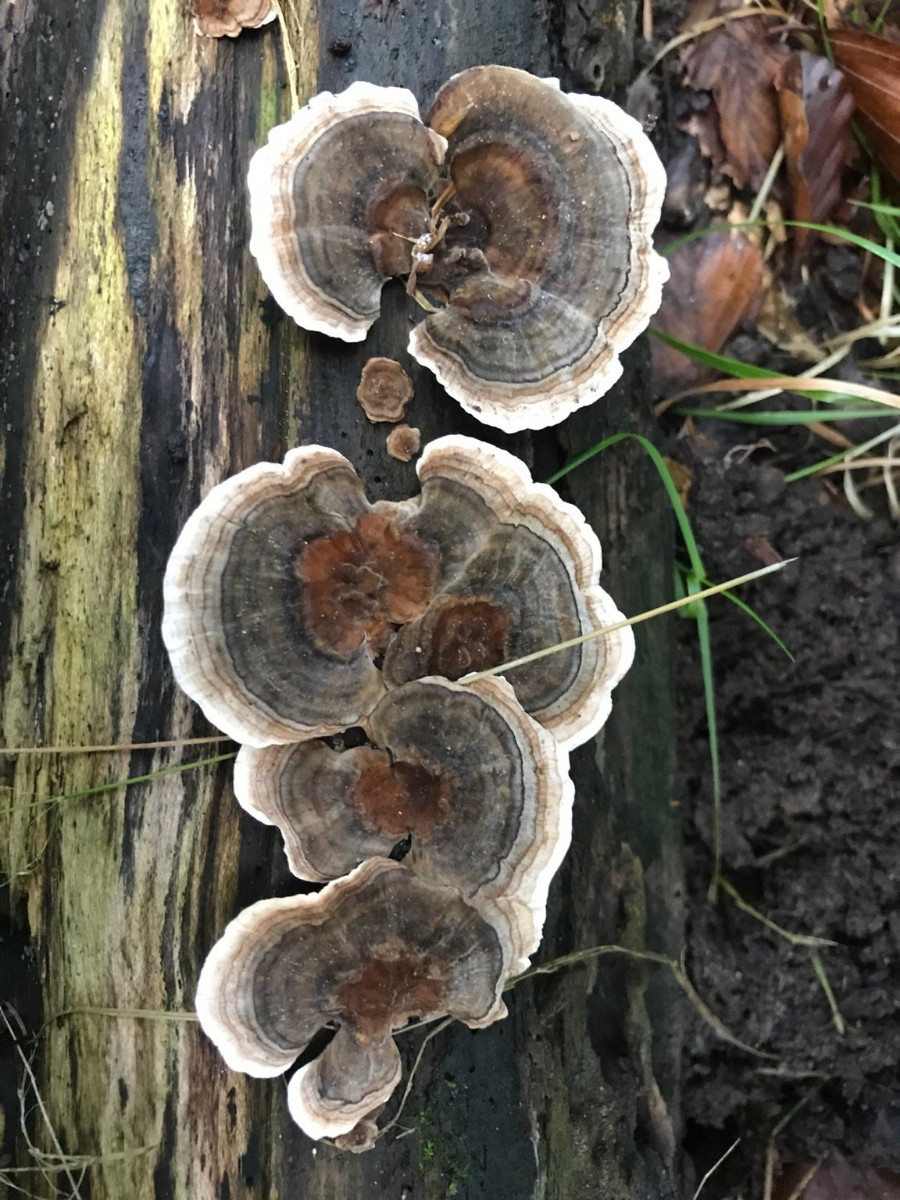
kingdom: Fungi
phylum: Basidiomycota
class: Agaricomycetes
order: Polyporales
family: Polyporaceae
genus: Trametes
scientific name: Trametes versicolor
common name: broget læderporesvamp
